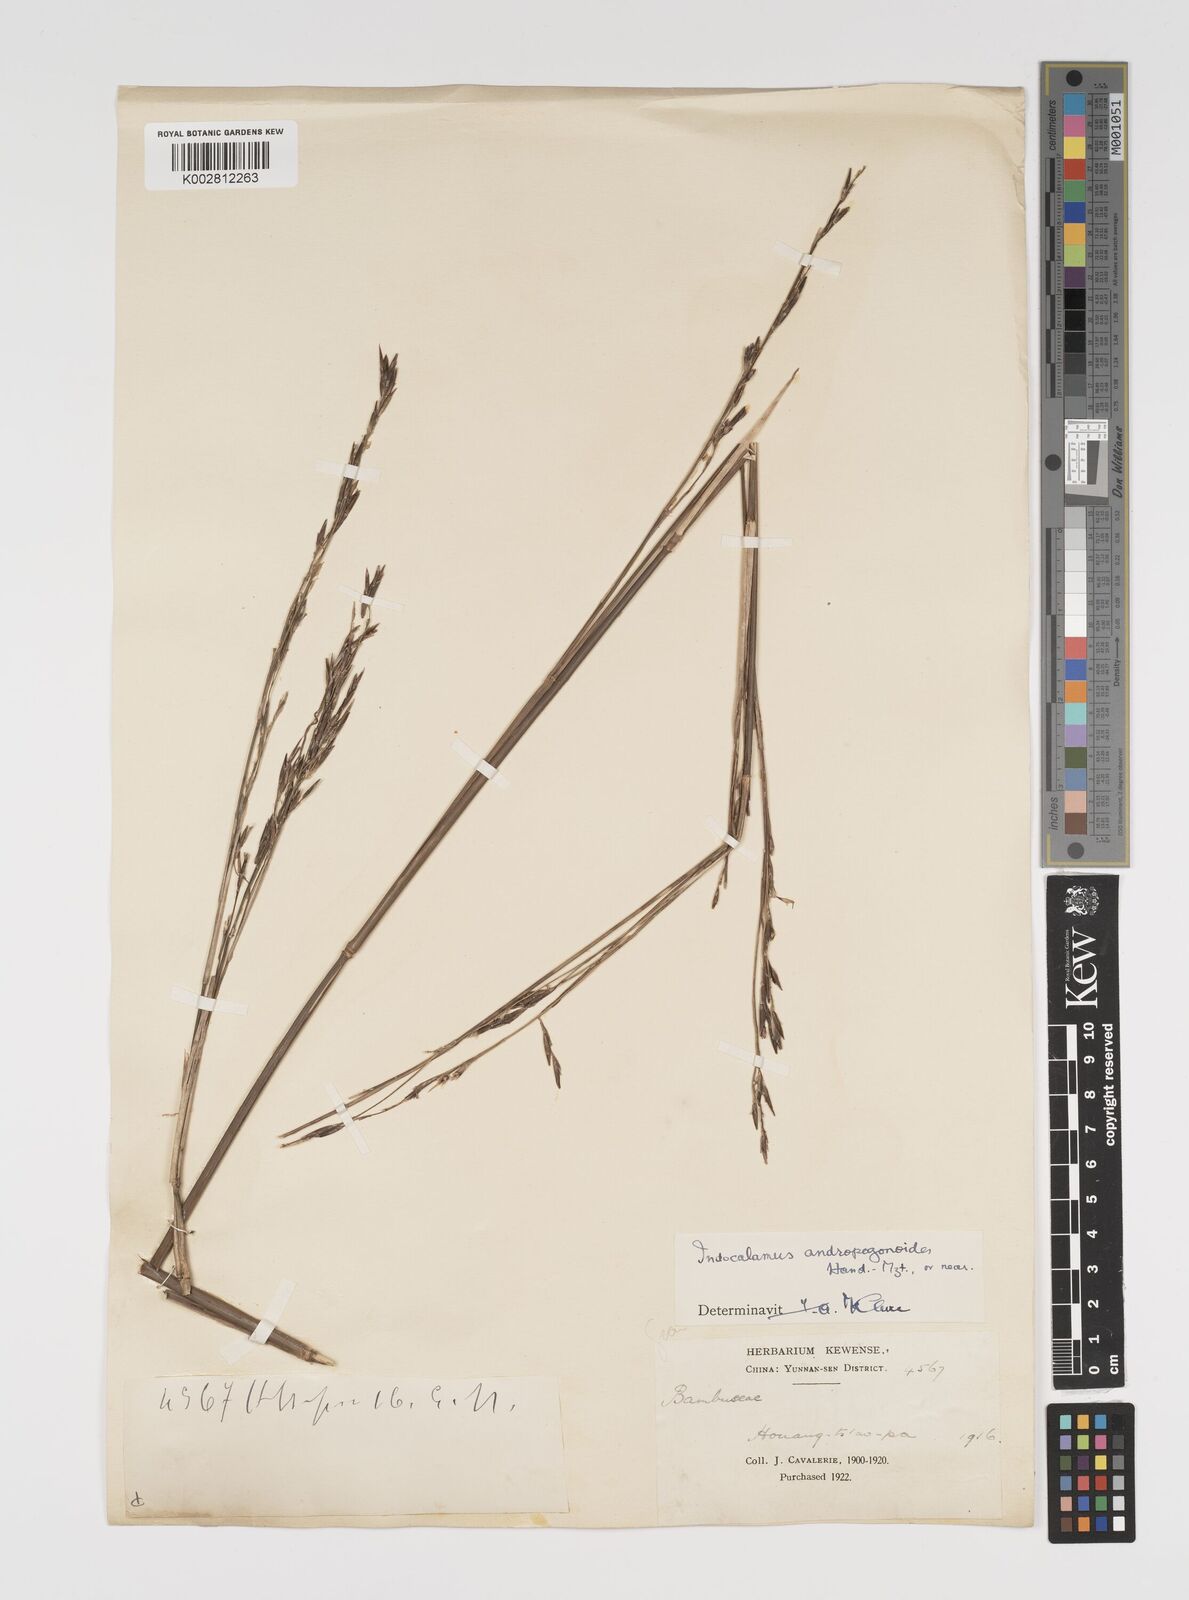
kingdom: Plantae
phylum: Tracheophyta
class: Liliopsida
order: Poales
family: Poaceae
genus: Yushania
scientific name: Yushania andropogonoides
